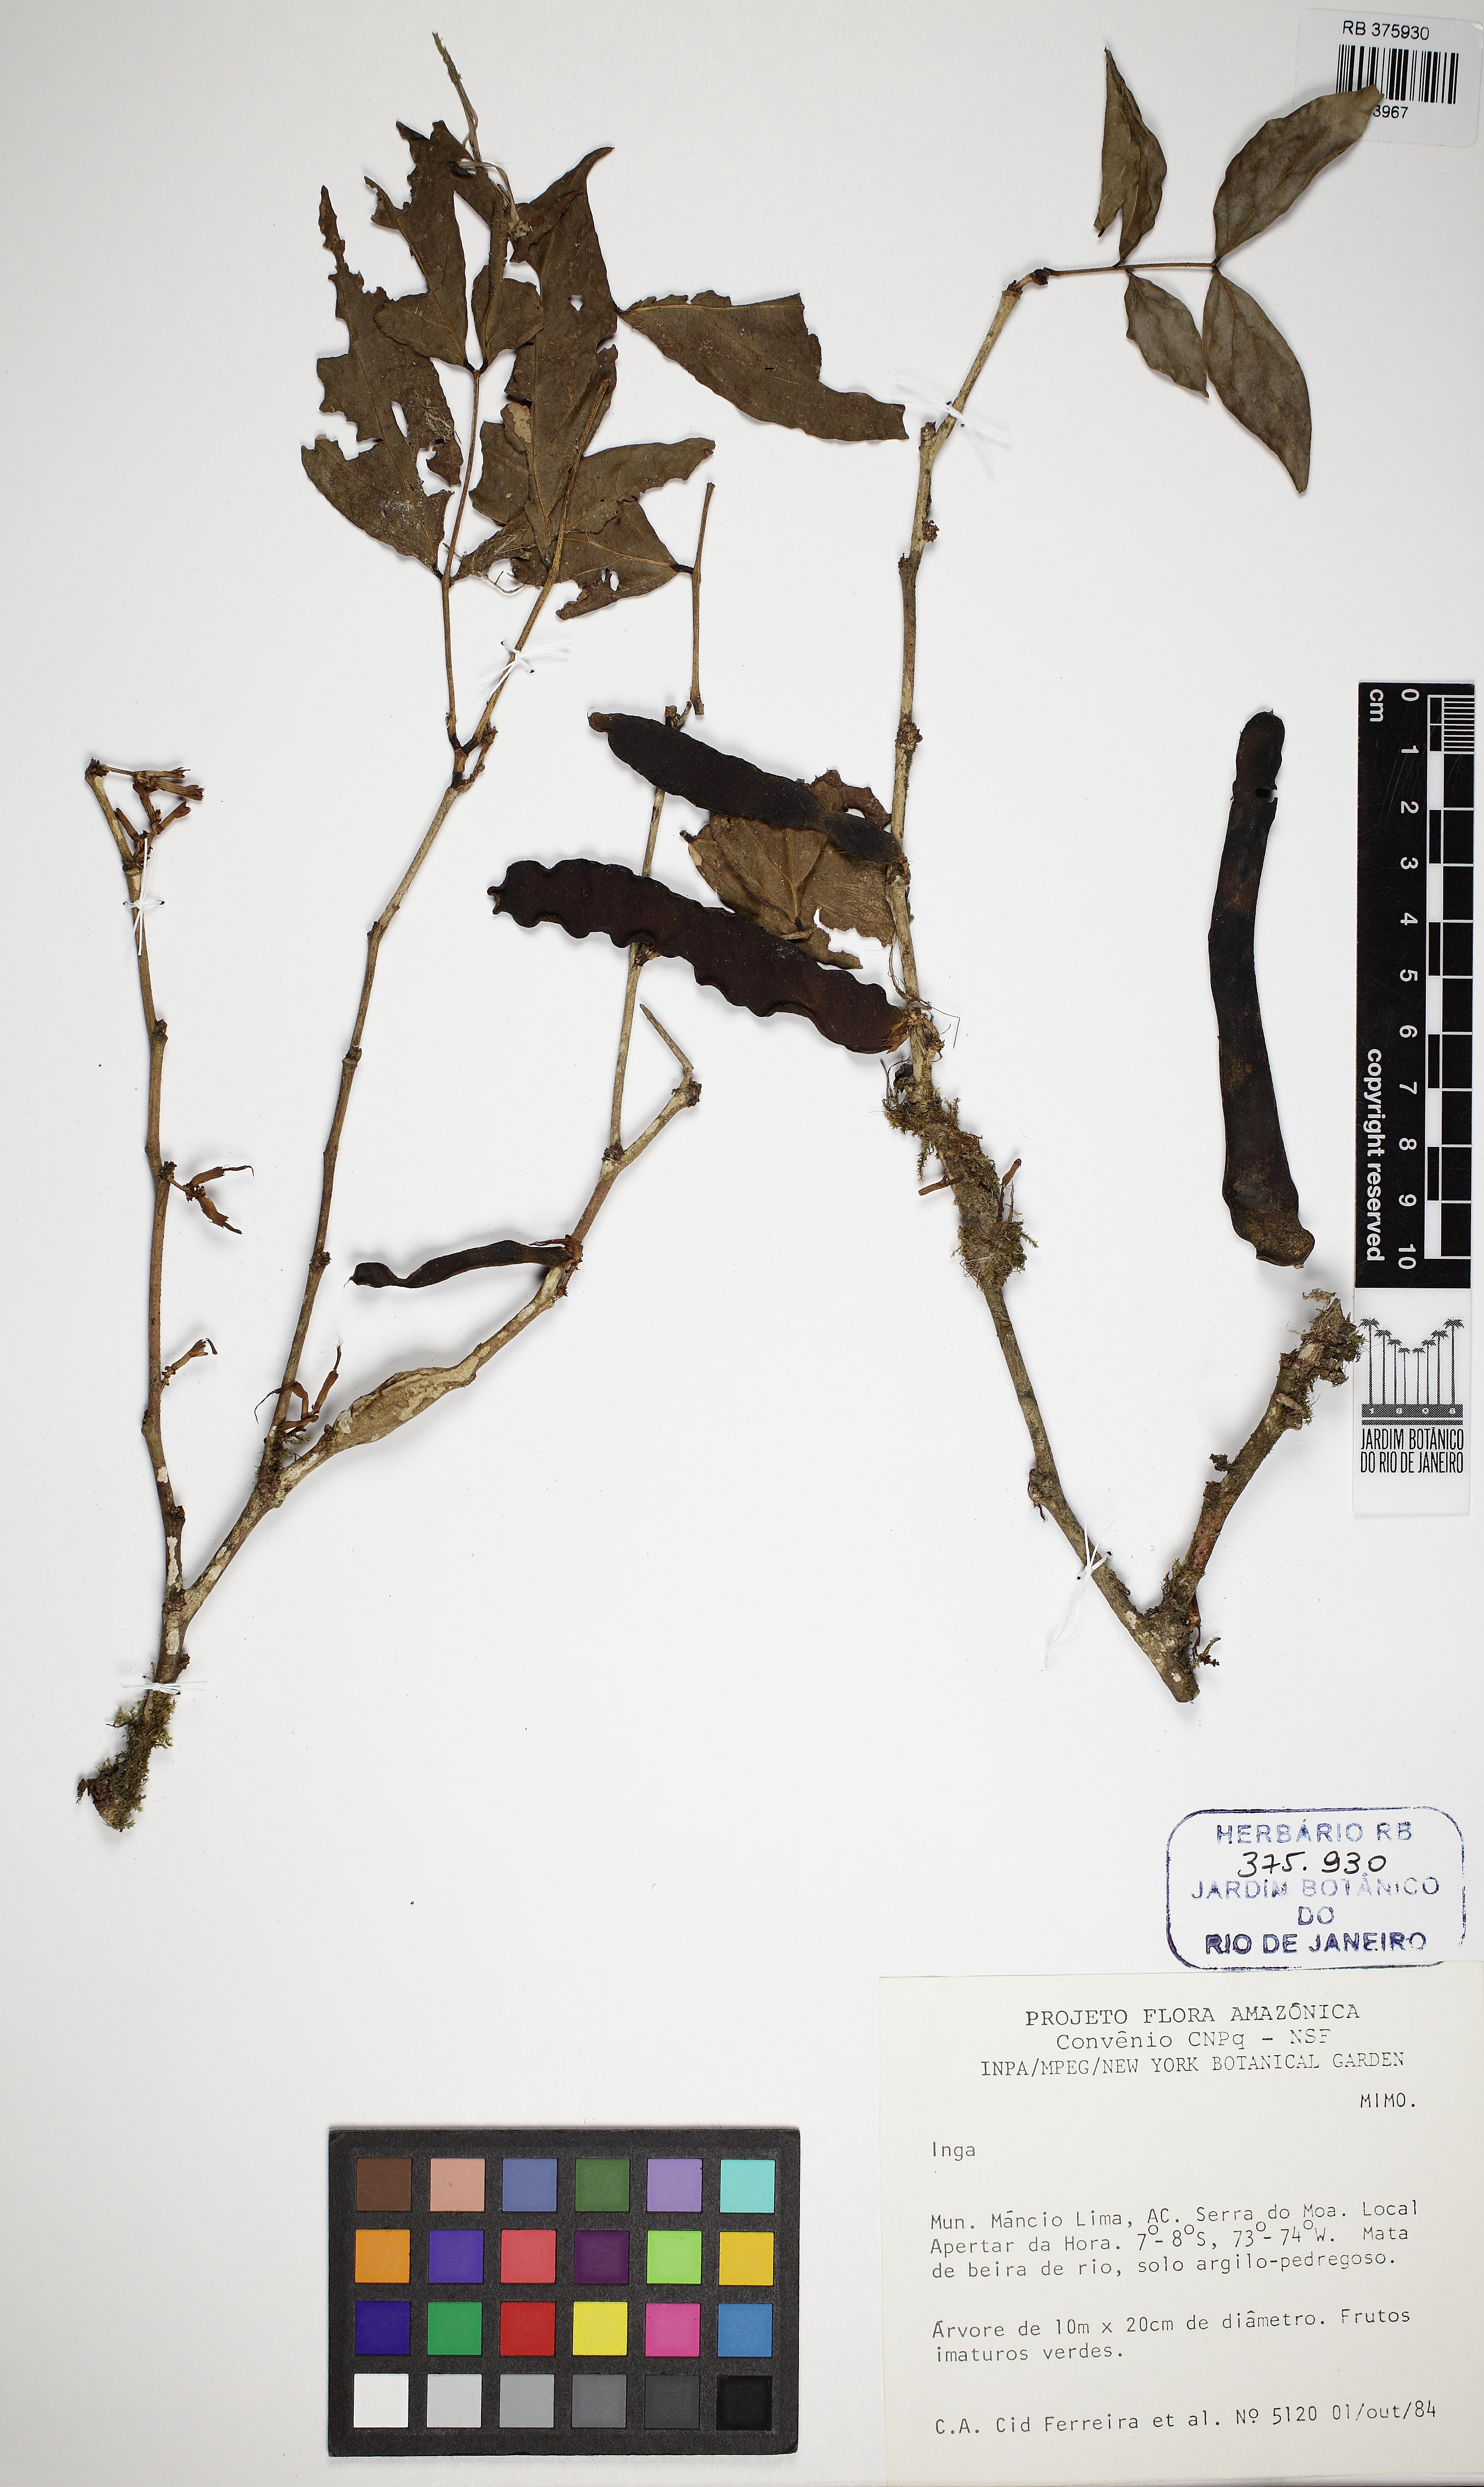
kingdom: Plantae
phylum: Tracheophyta
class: Magnoliopsida
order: Fabales
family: Fabaceae
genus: Zygia
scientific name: Zygia
